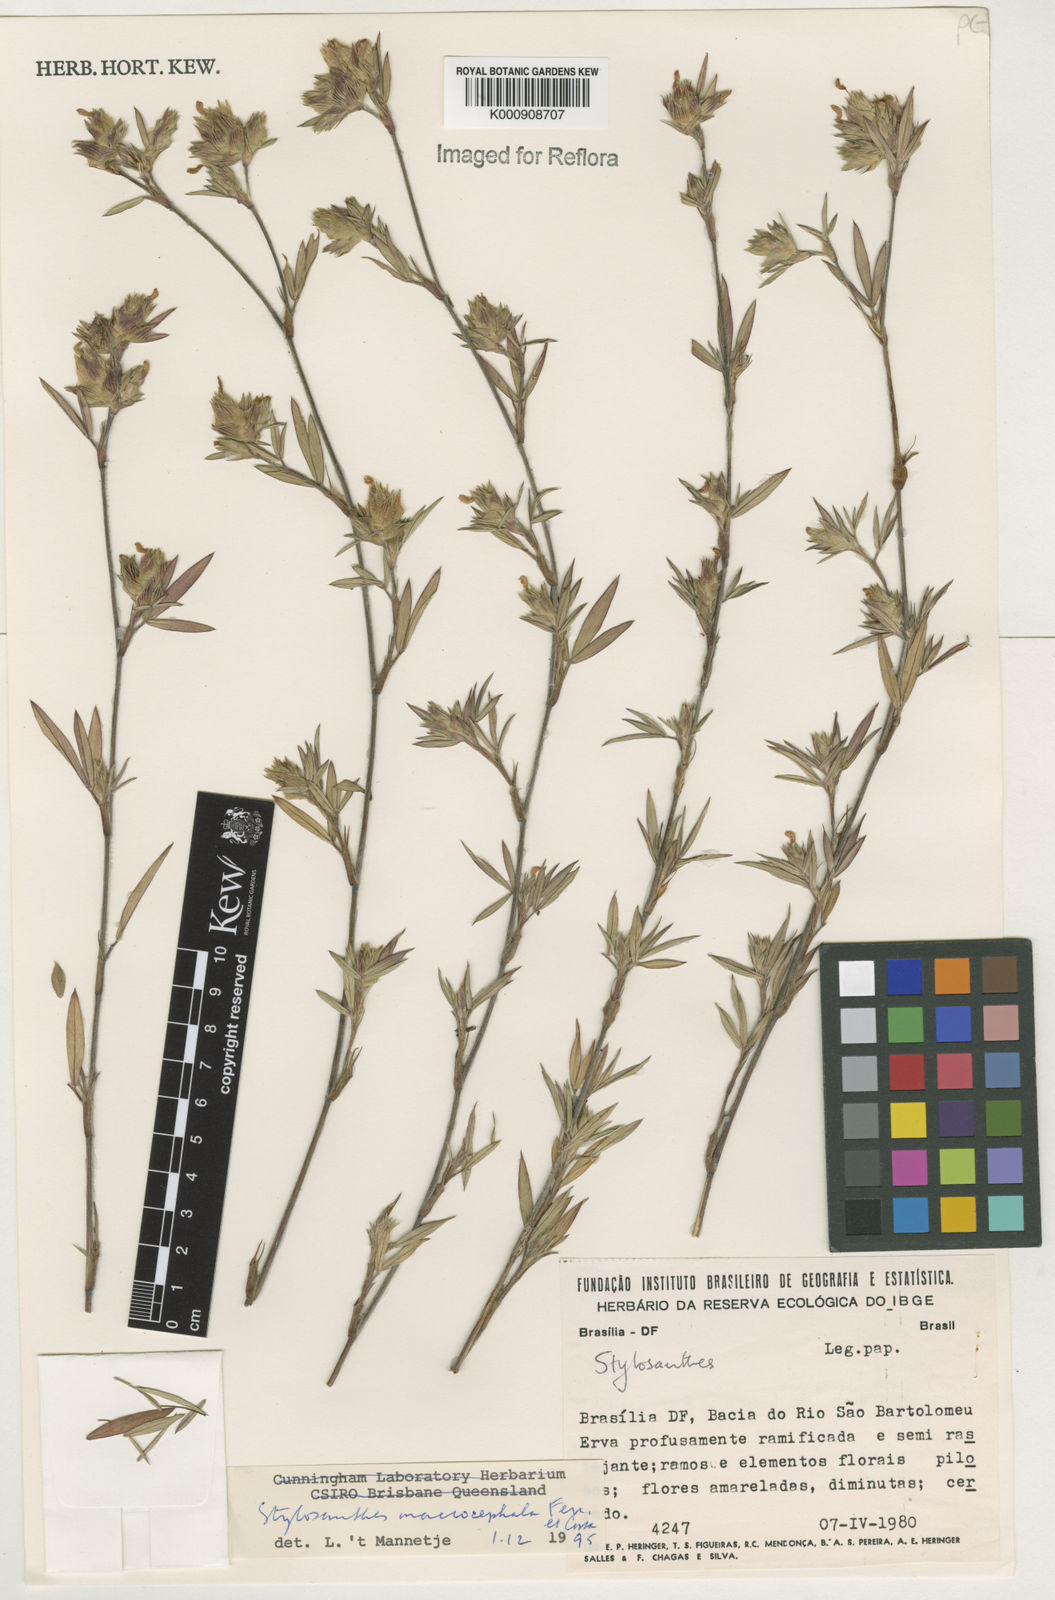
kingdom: Plantae
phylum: Tracheophyta
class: Magnoliopsida
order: Fabales
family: Fabaceae
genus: Stylosanthes
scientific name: Stylosanthes macrocephala
